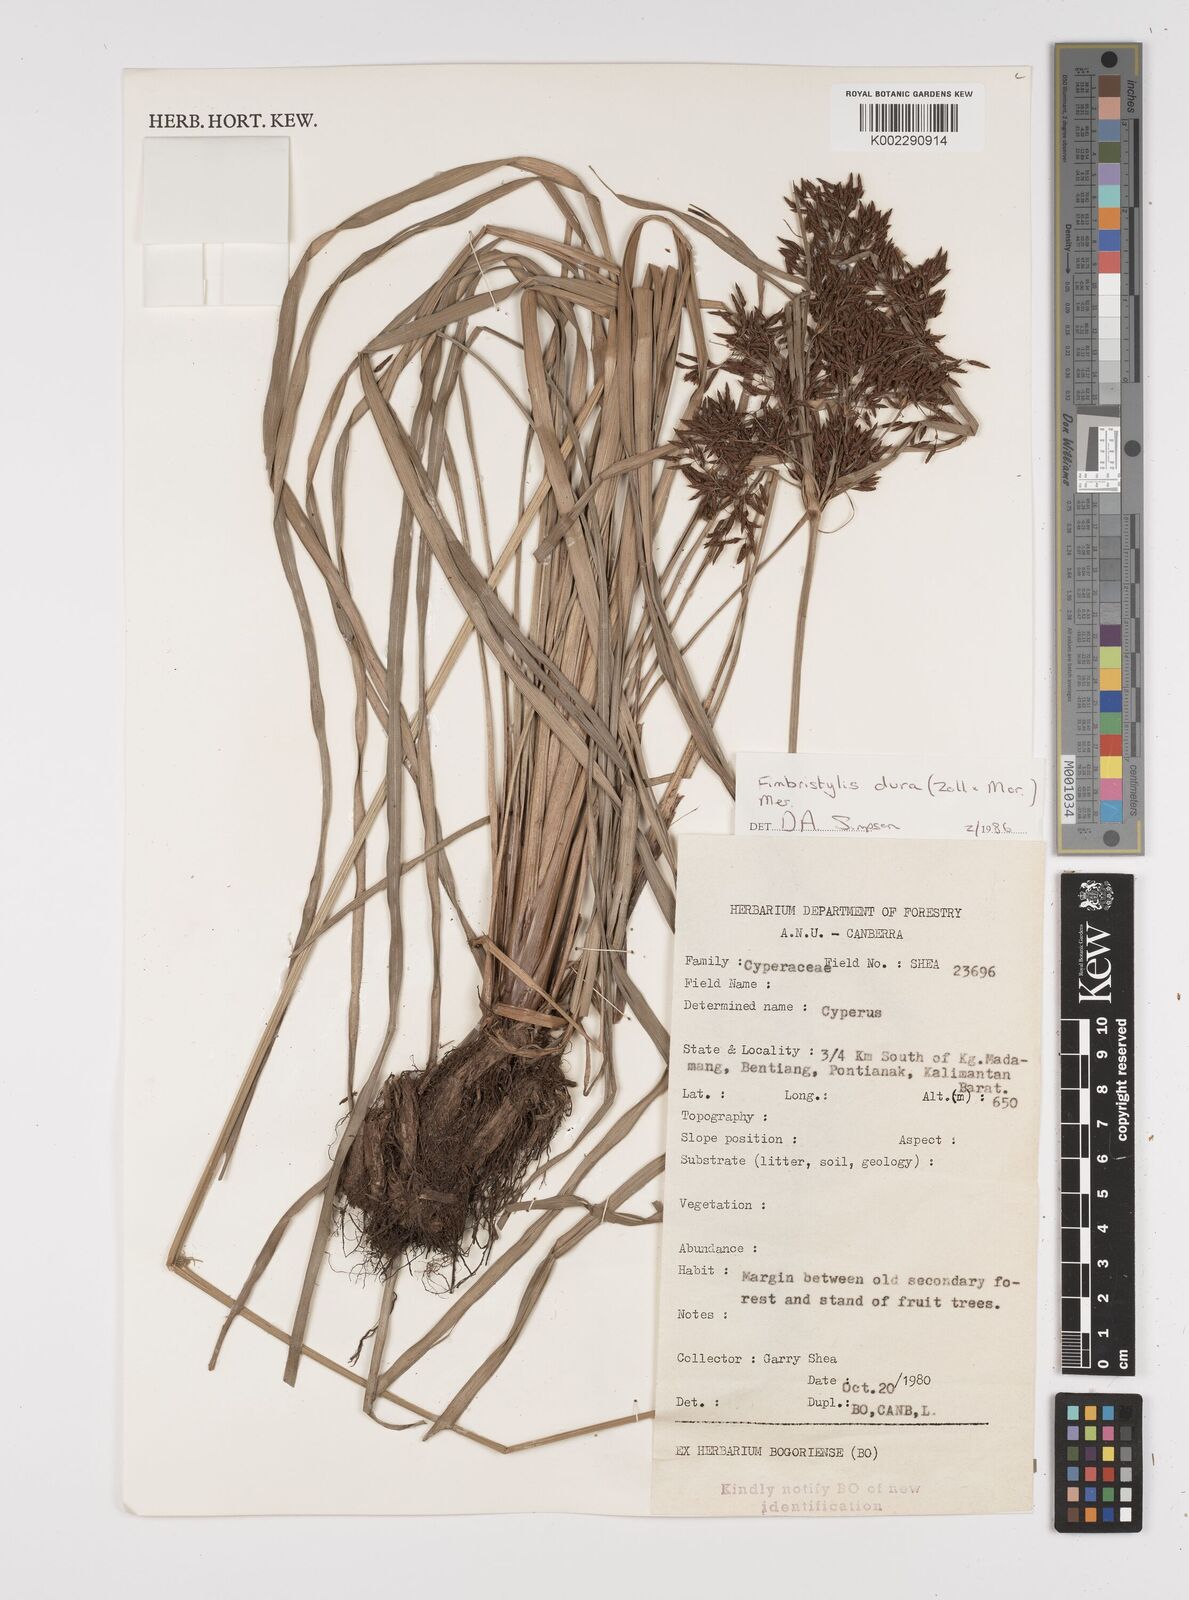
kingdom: Plantae
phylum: Tracheophyta
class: Liliopsida
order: Poales
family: Cyperaceae
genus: Fimbristylis
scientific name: Fimbristylis dura
